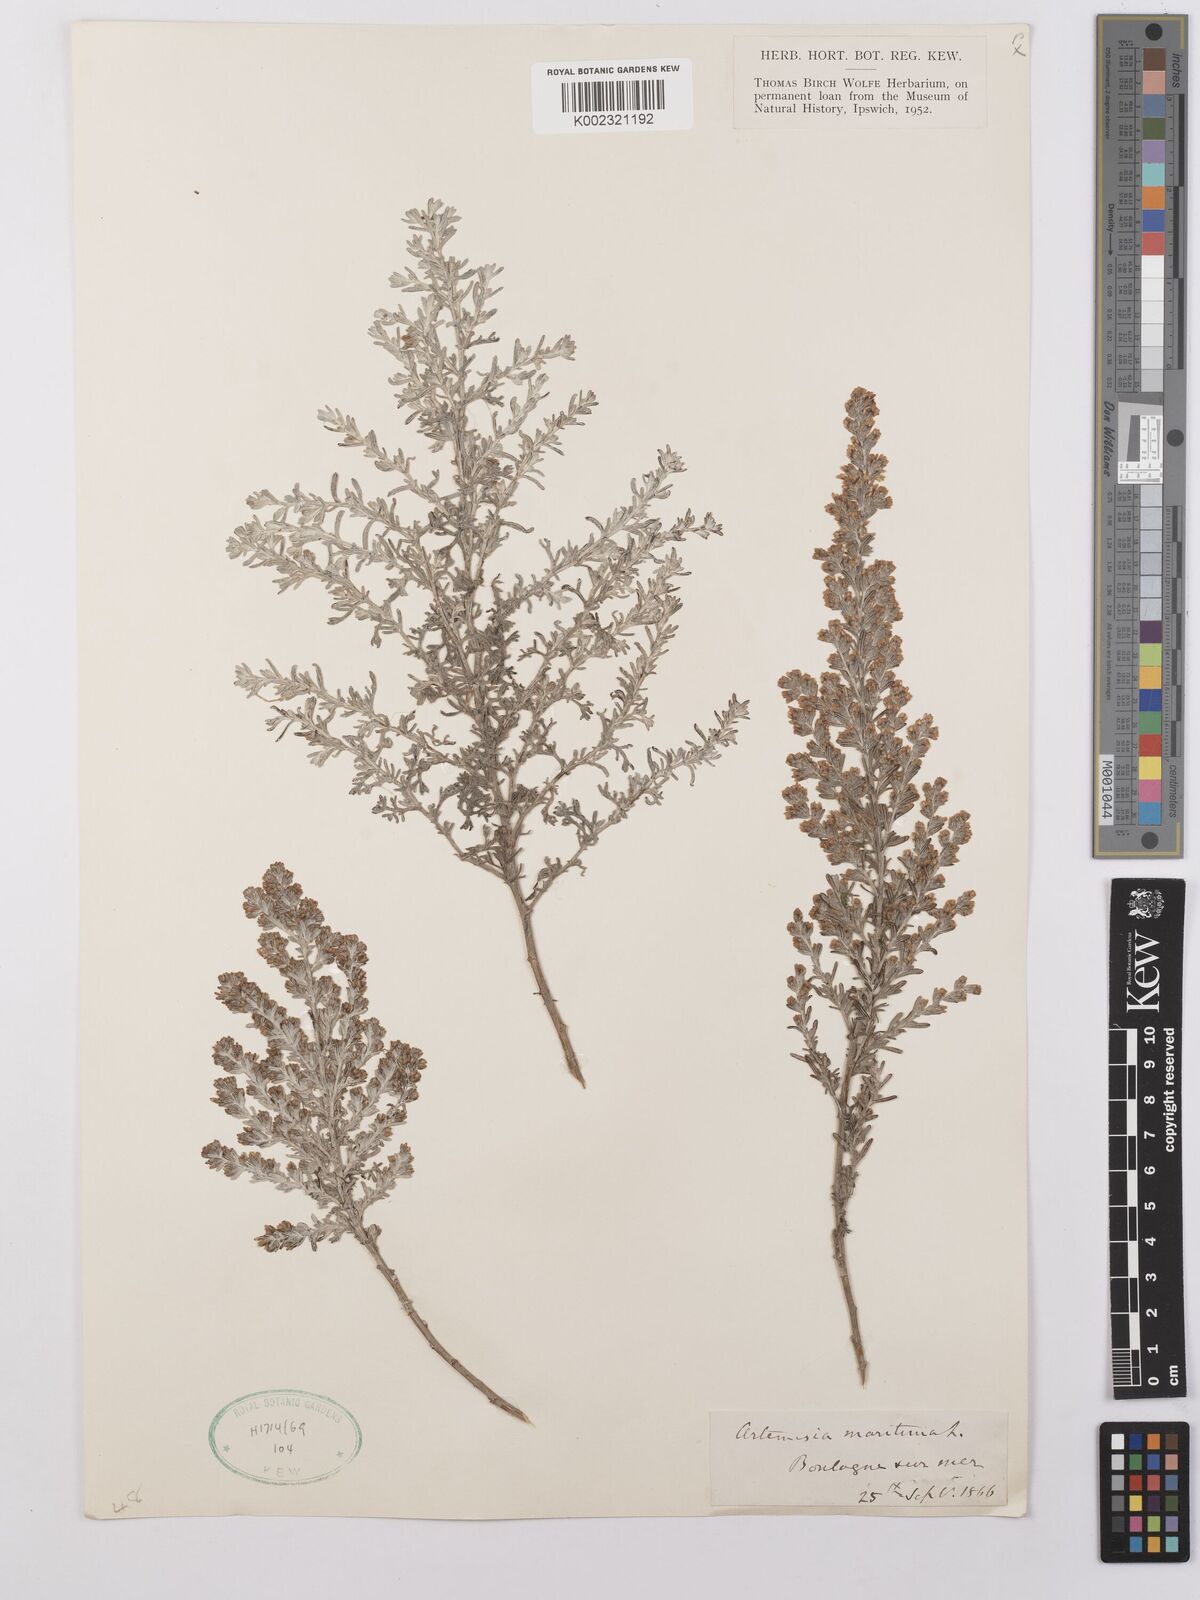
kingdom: Plantae
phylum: Tracheophyta
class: Magnoliopsida
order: Asterales
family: Asteraceae
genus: Artemisia
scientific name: Artemisia maritima
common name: Wormseed
